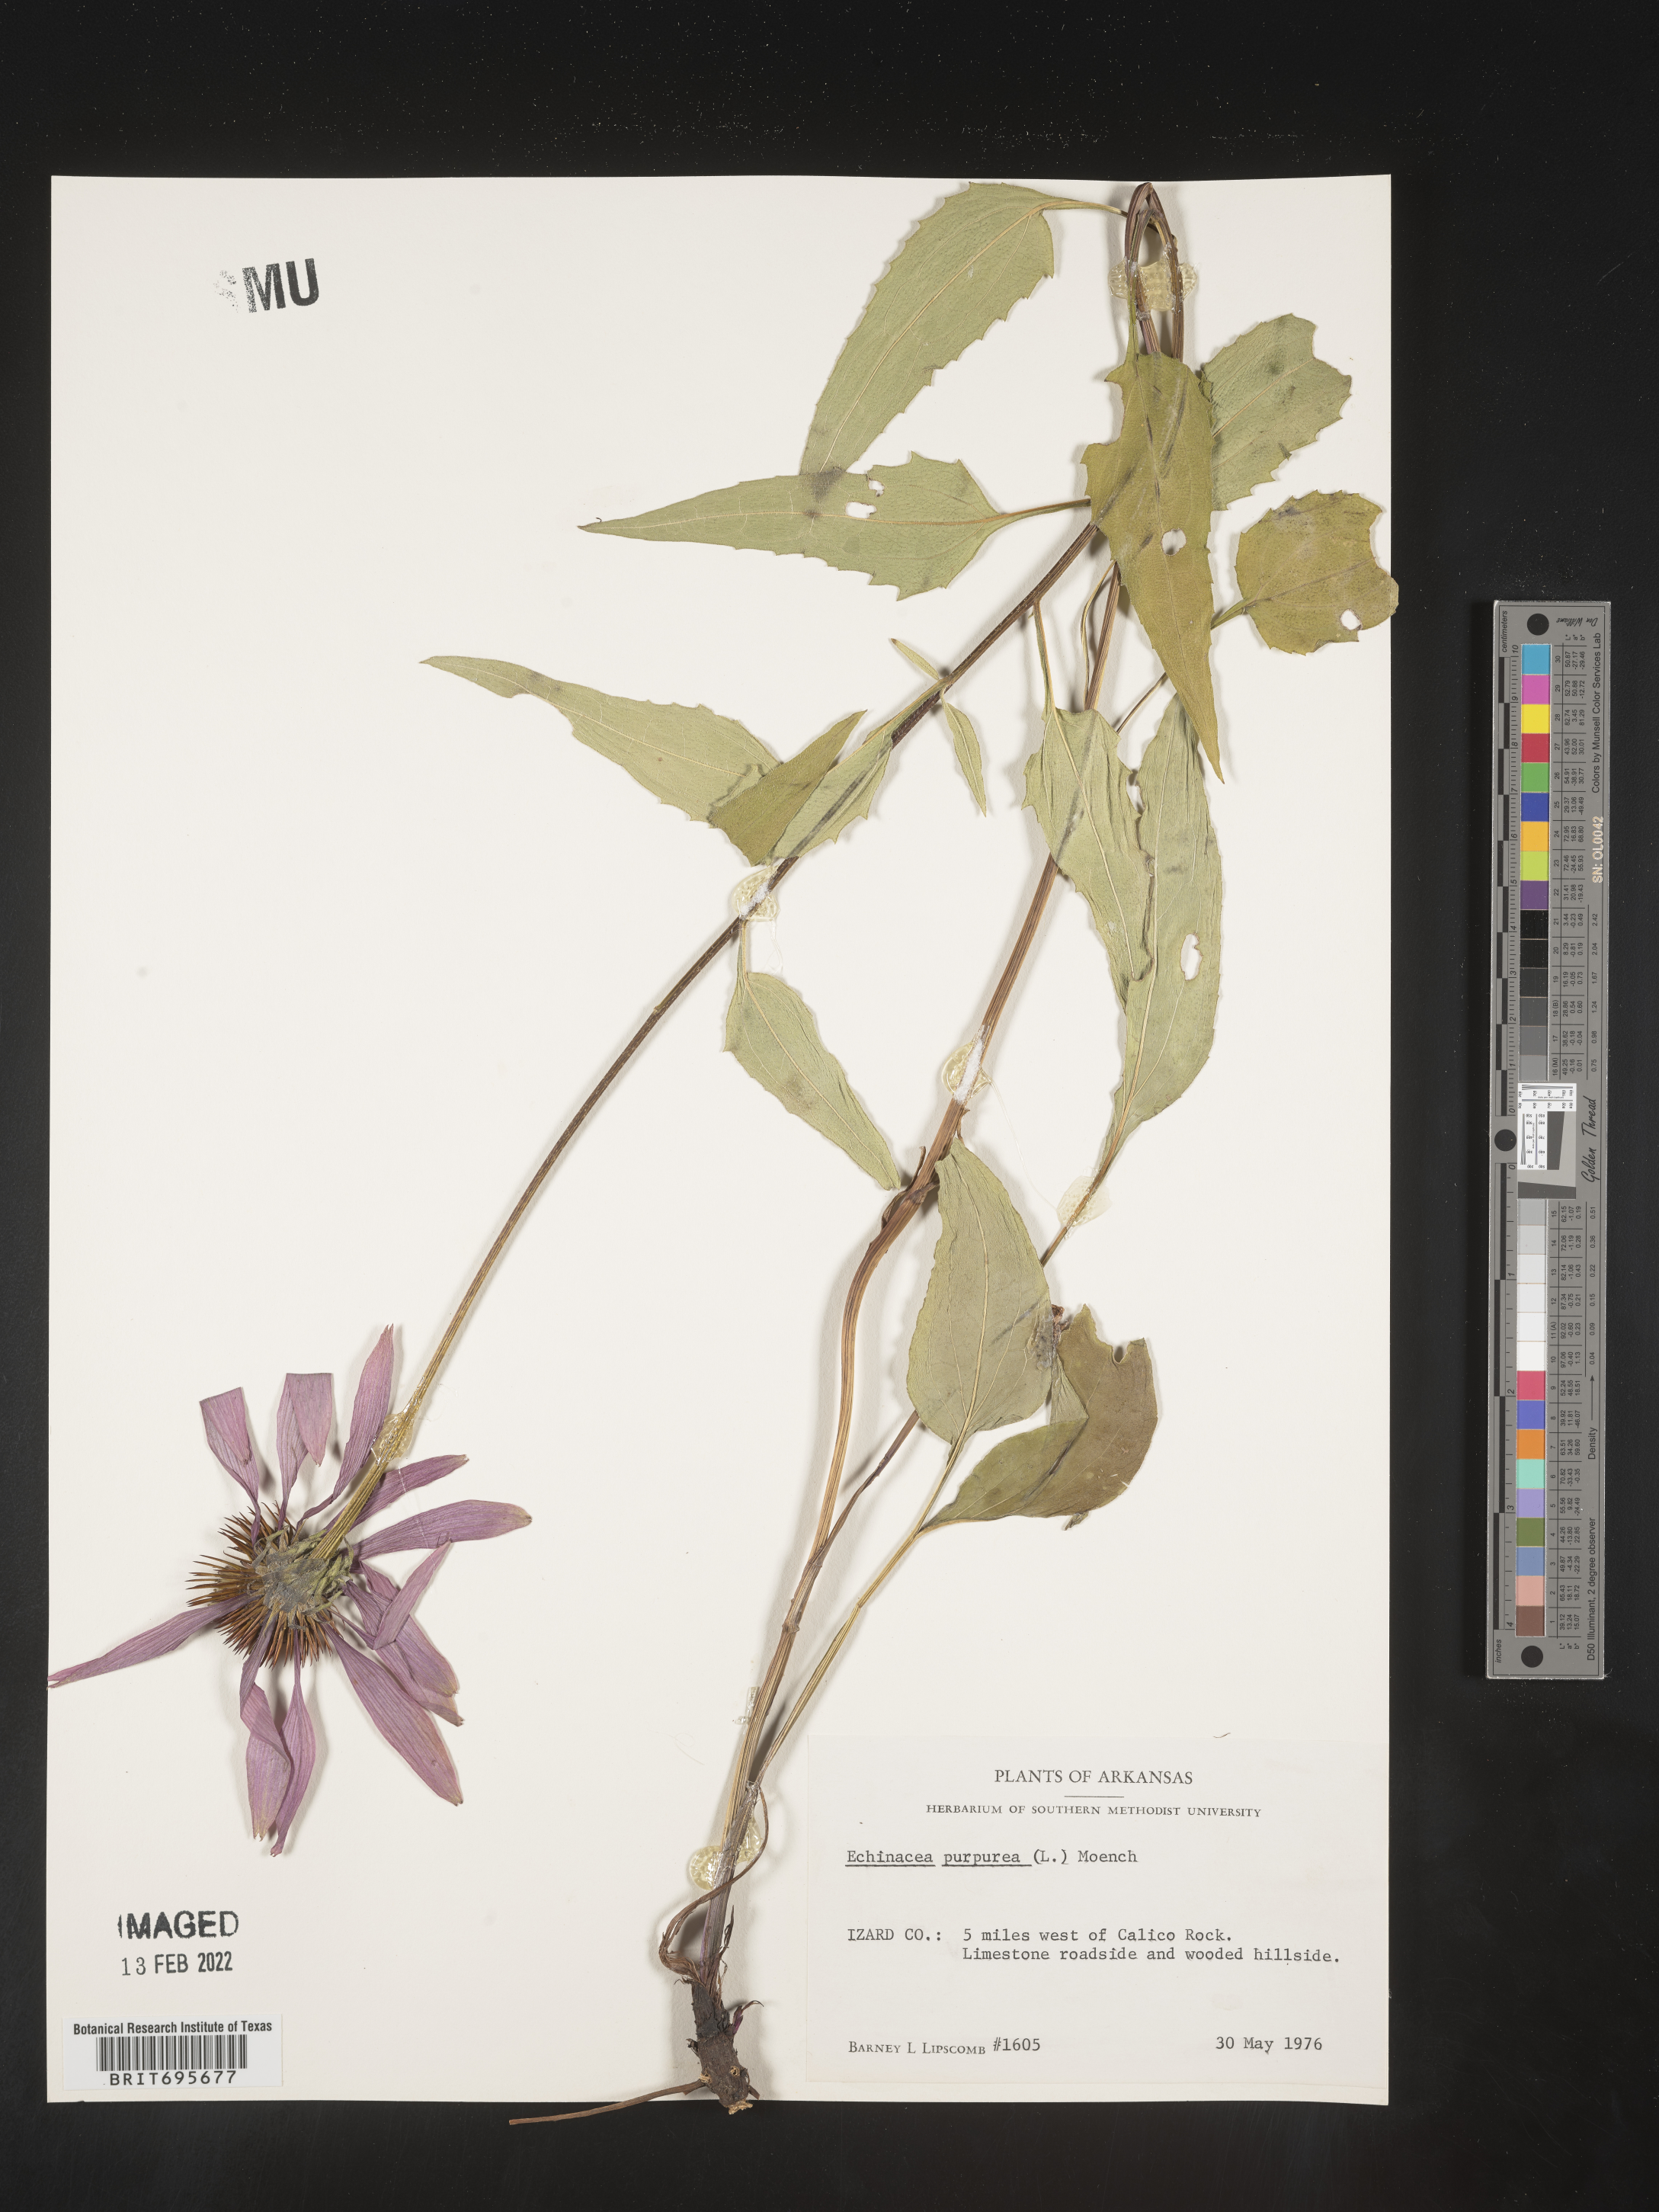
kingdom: Plantae
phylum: Tracheophyta
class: Magnoliopsida
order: Asterales
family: Asteraceae
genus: Echinacea
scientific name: Echinacea purpurea
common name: Broad-leaved purple coneflower
